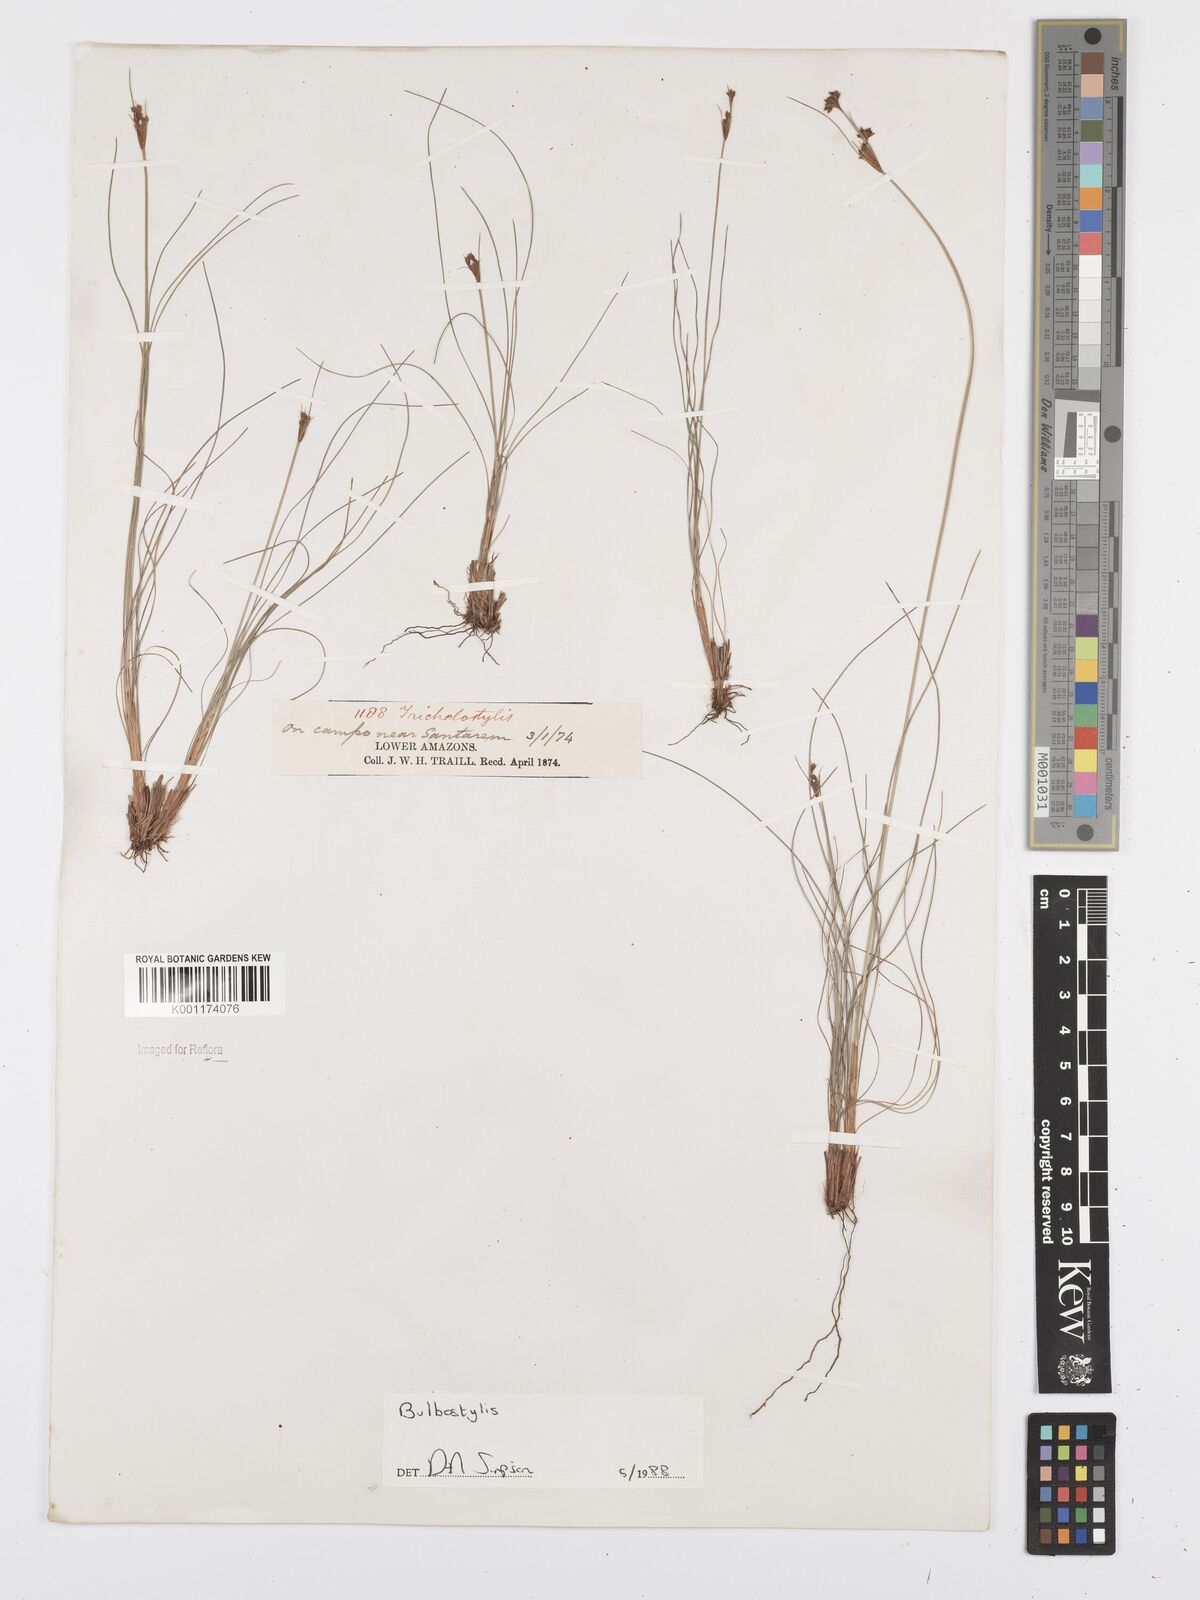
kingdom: Plantae
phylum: Tracheophyta
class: Liliopsida
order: Poales
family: Cyperaceae
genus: Bulbostylis
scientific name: Bulbostylis
